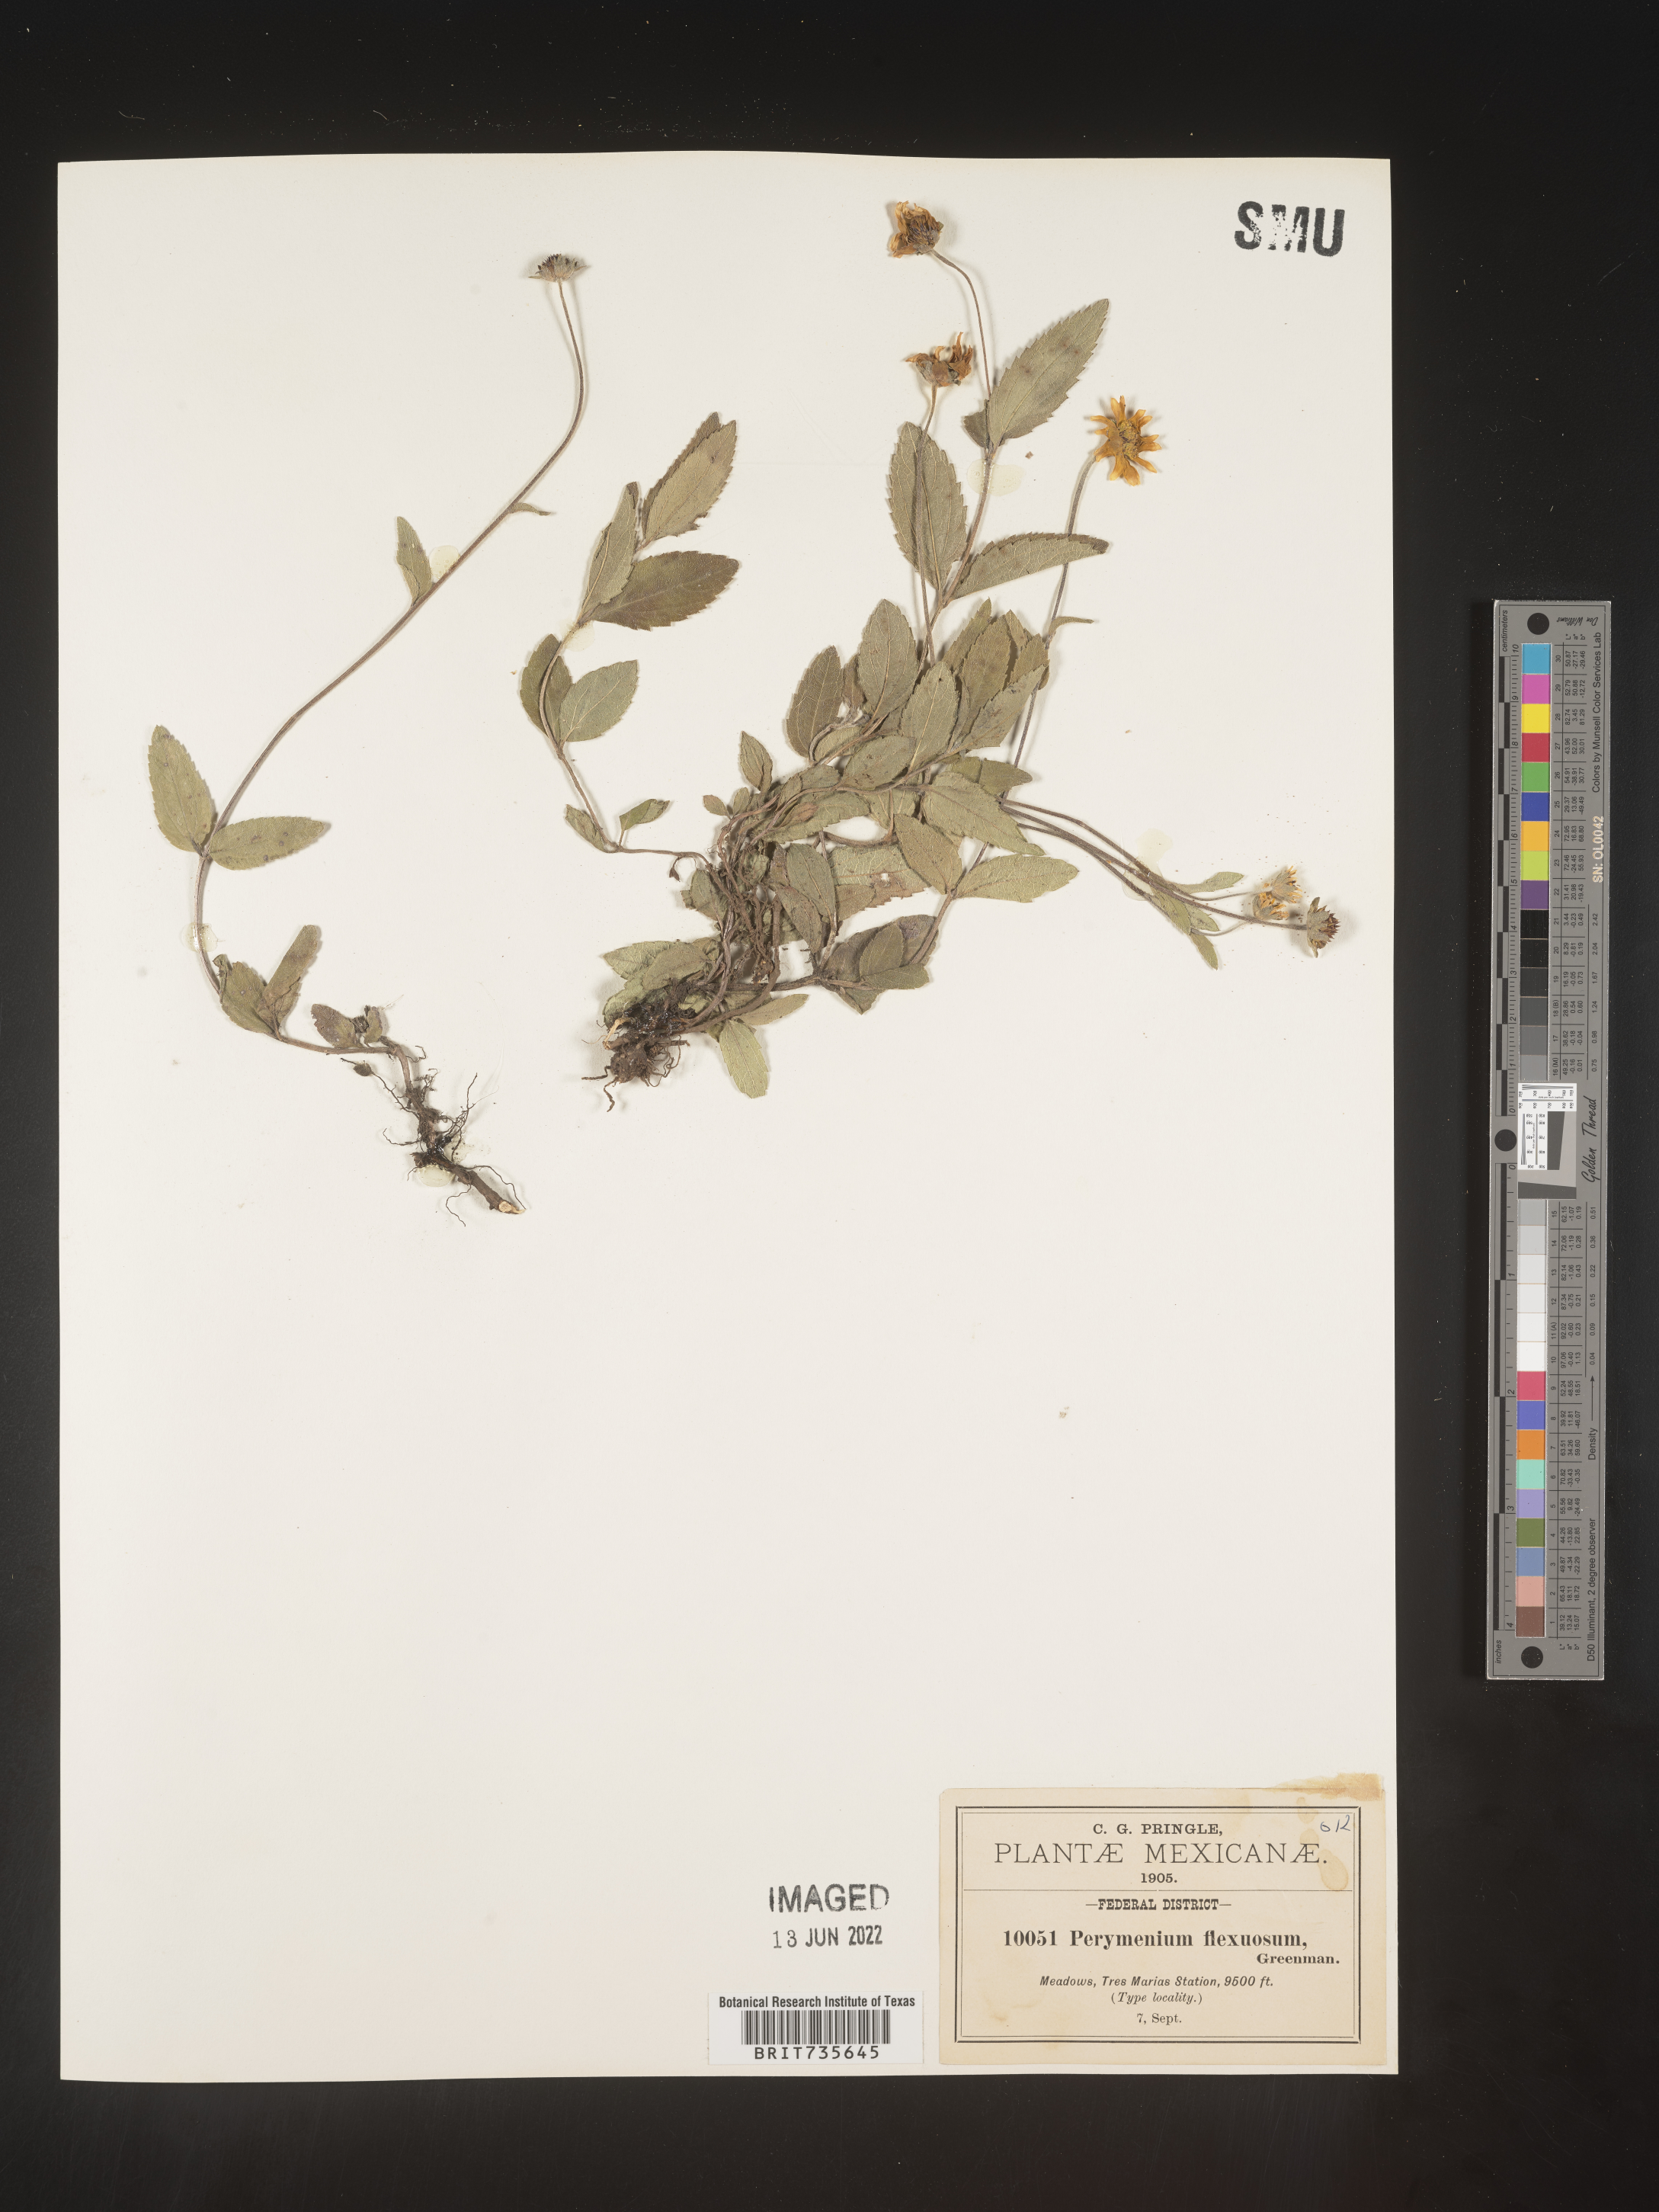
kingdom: Plantae
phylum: Tracheophyta
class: Magnoliopsida
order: Asterales
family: Asteraceae
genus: Perymenium
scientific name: Perymenium
